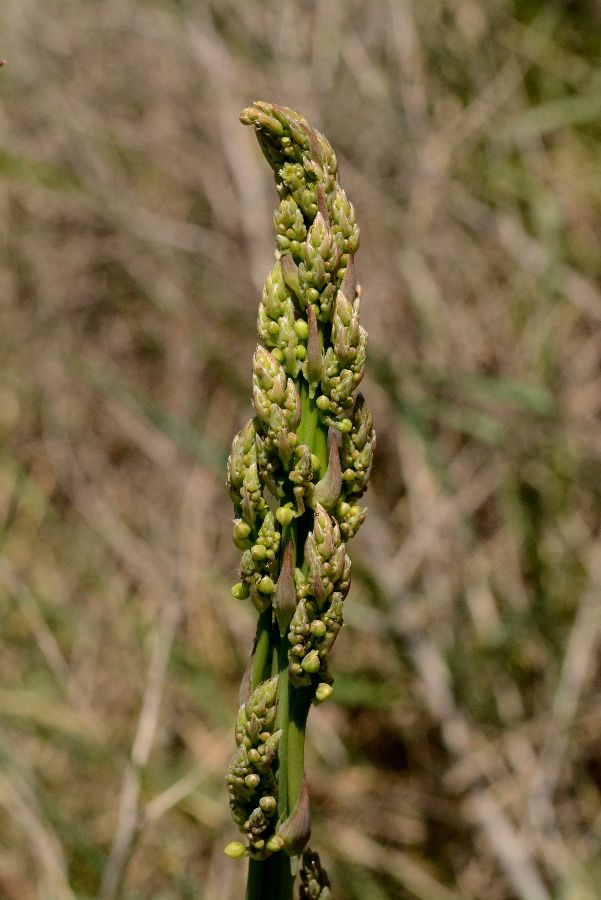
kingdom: Plantae
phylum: Tracheophyta
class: Liliopsida
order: Asparagales
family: Asparagaceae
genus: Asparagus
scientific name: Asparagus officinalis
